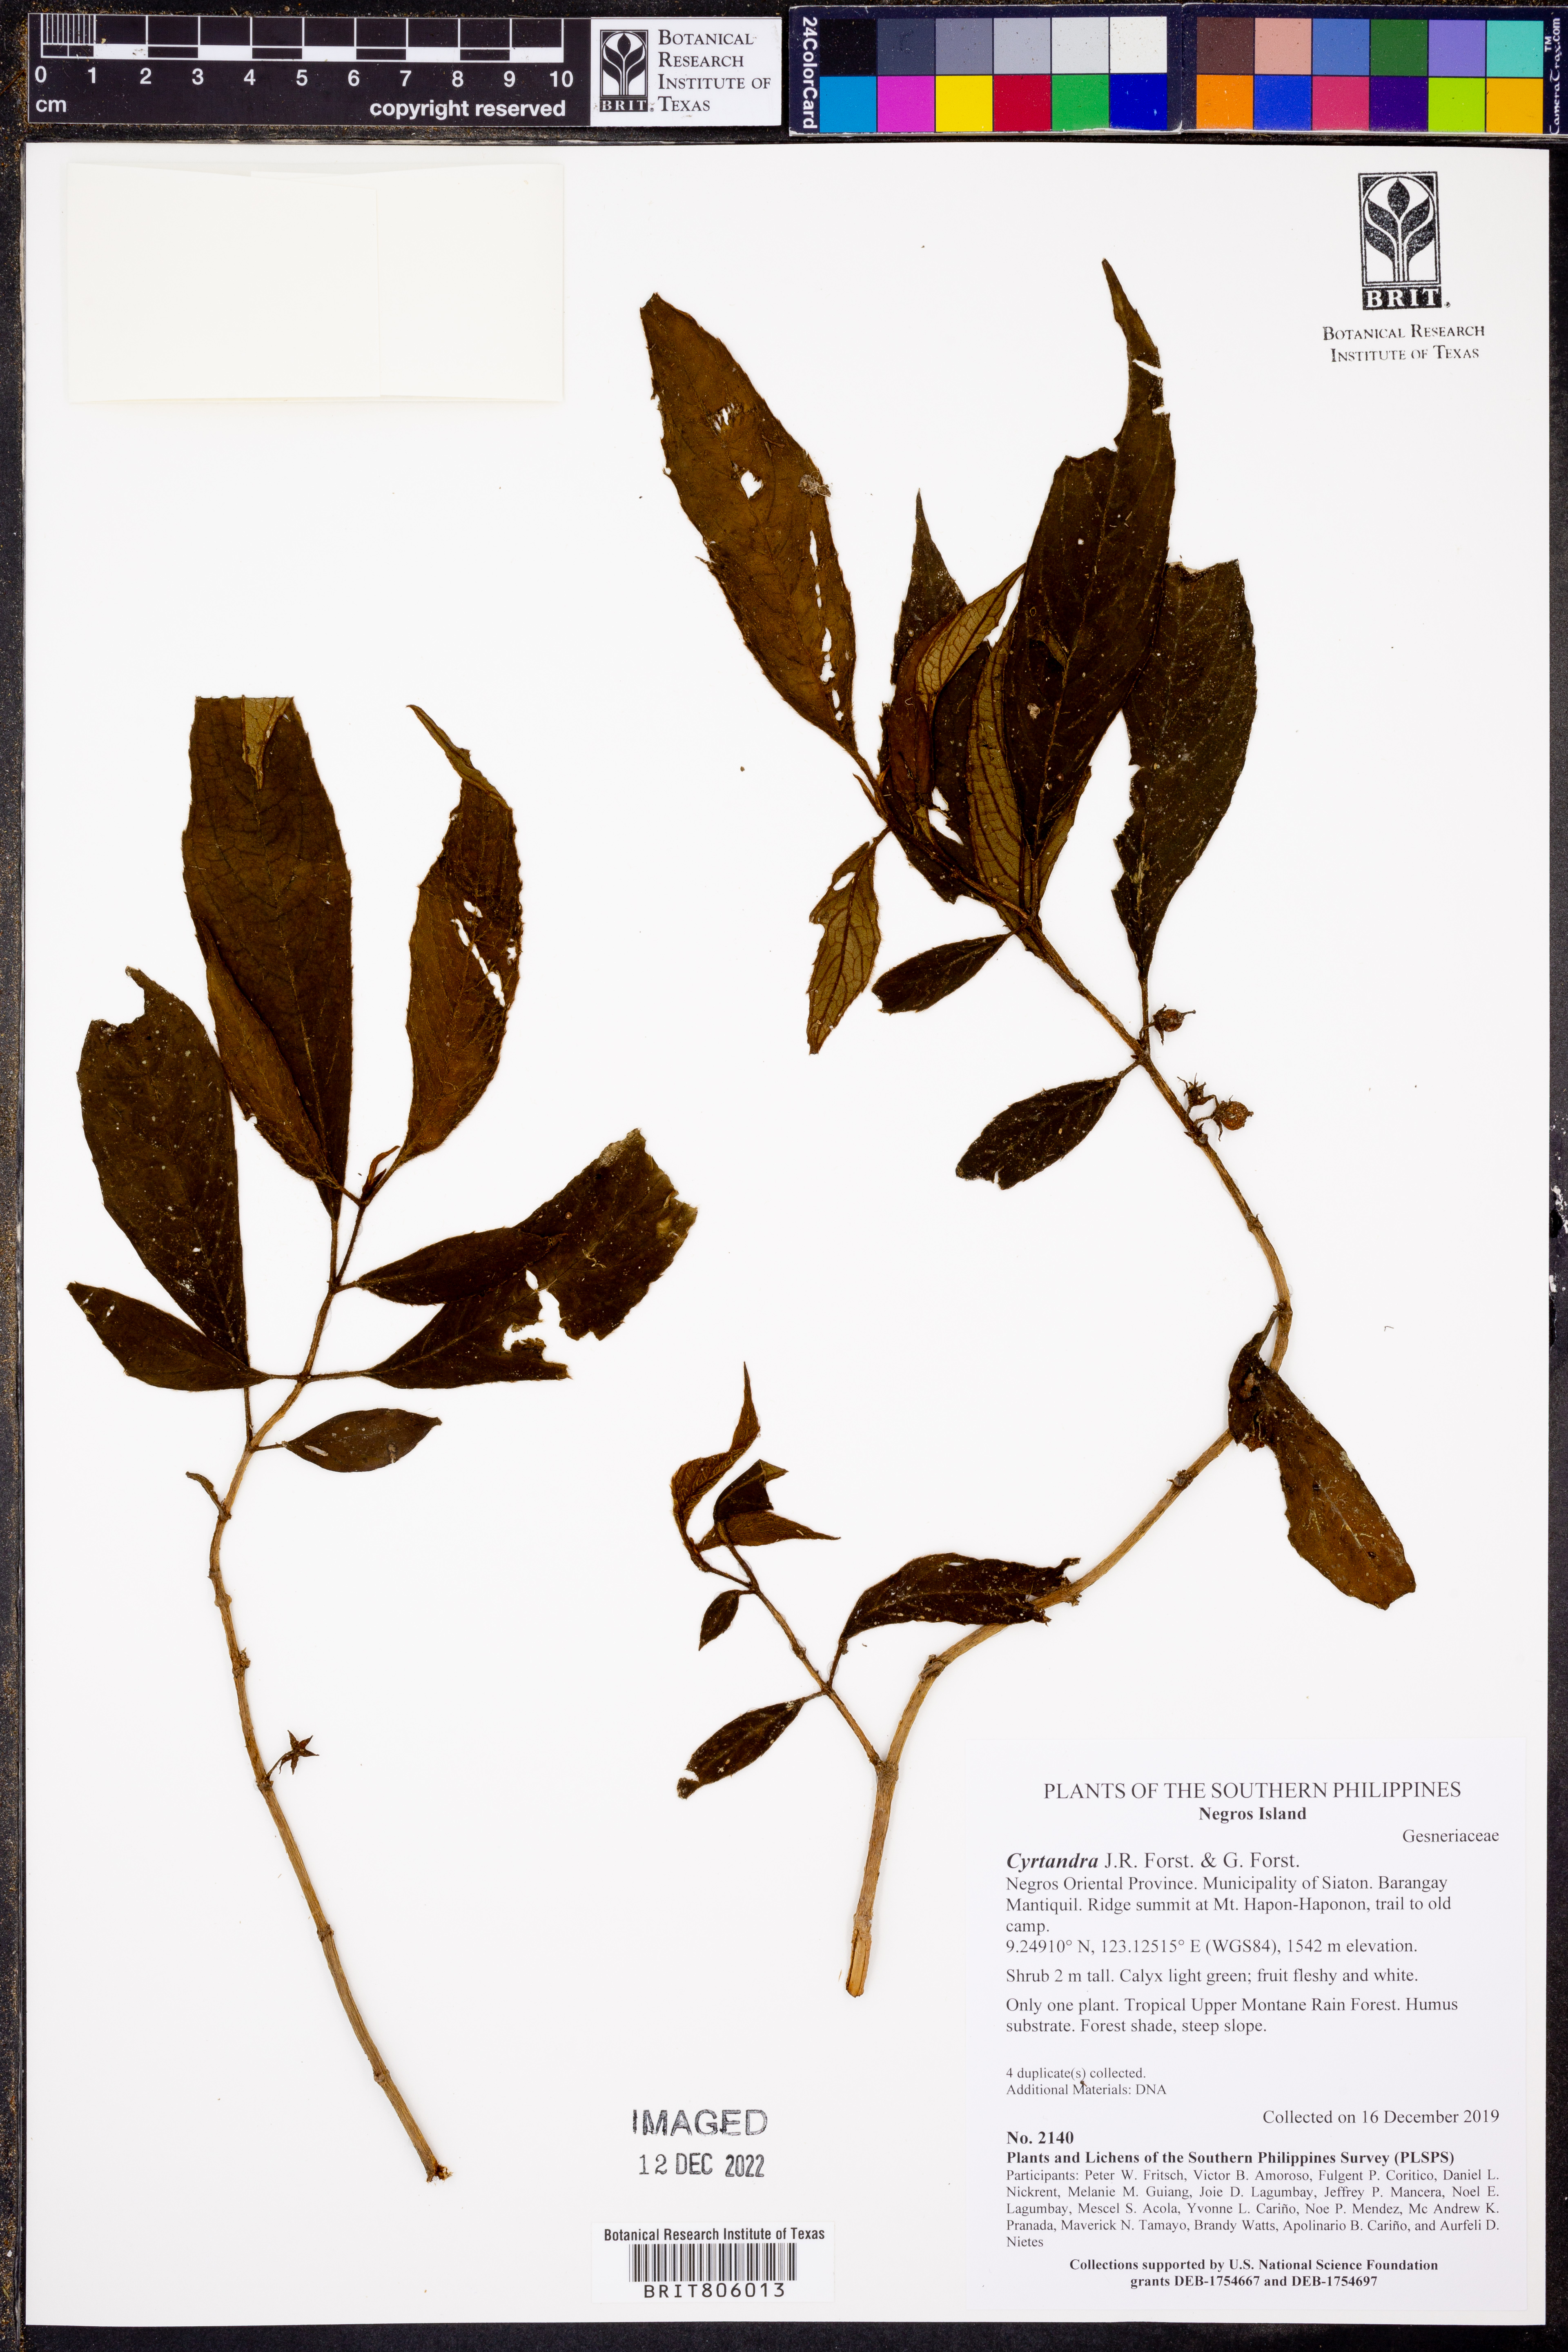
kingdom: Plantae
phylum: Tracheophyta
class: Magnoliopsida
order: Lamiales
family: Gesneriaceae
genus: Cyrtandra
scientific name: Cyrtandra
